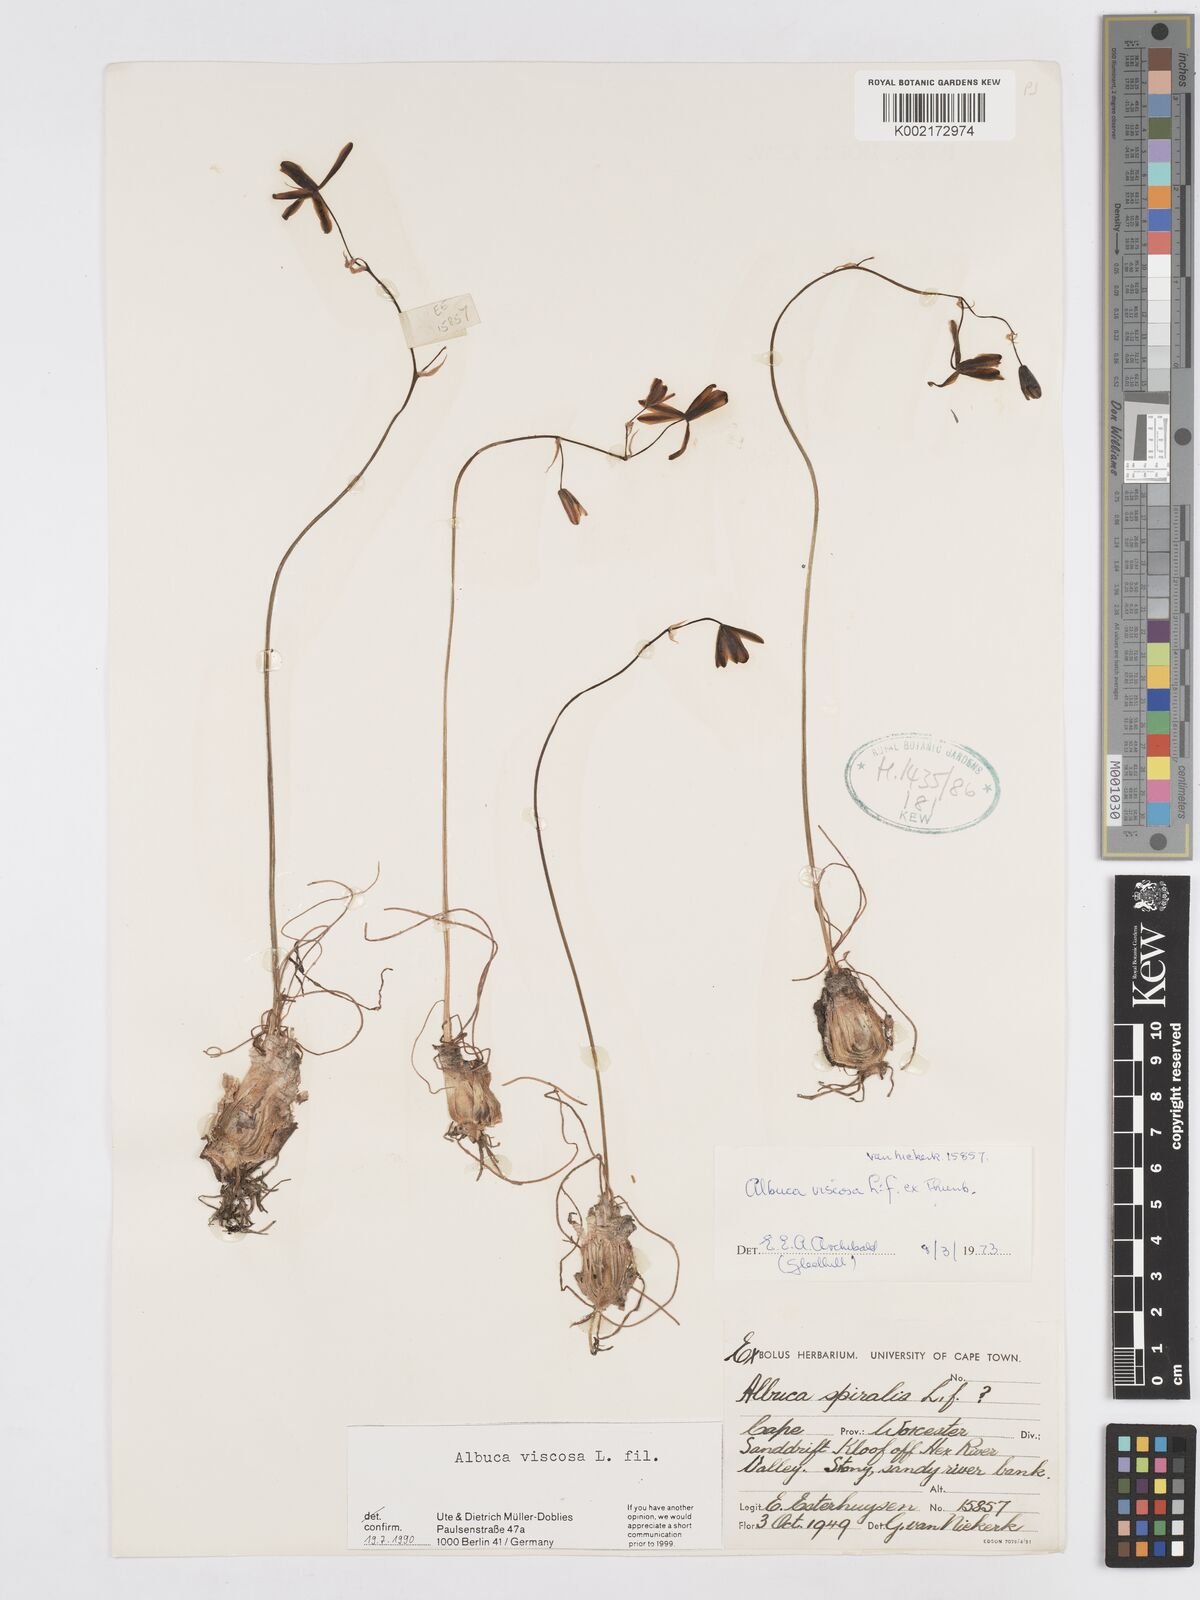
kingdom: Plantae
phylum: Tracheophyta
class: Liliopsida
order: Asparagales
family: Asparagaceae
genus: Albuca
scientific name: Albuca viscosa
